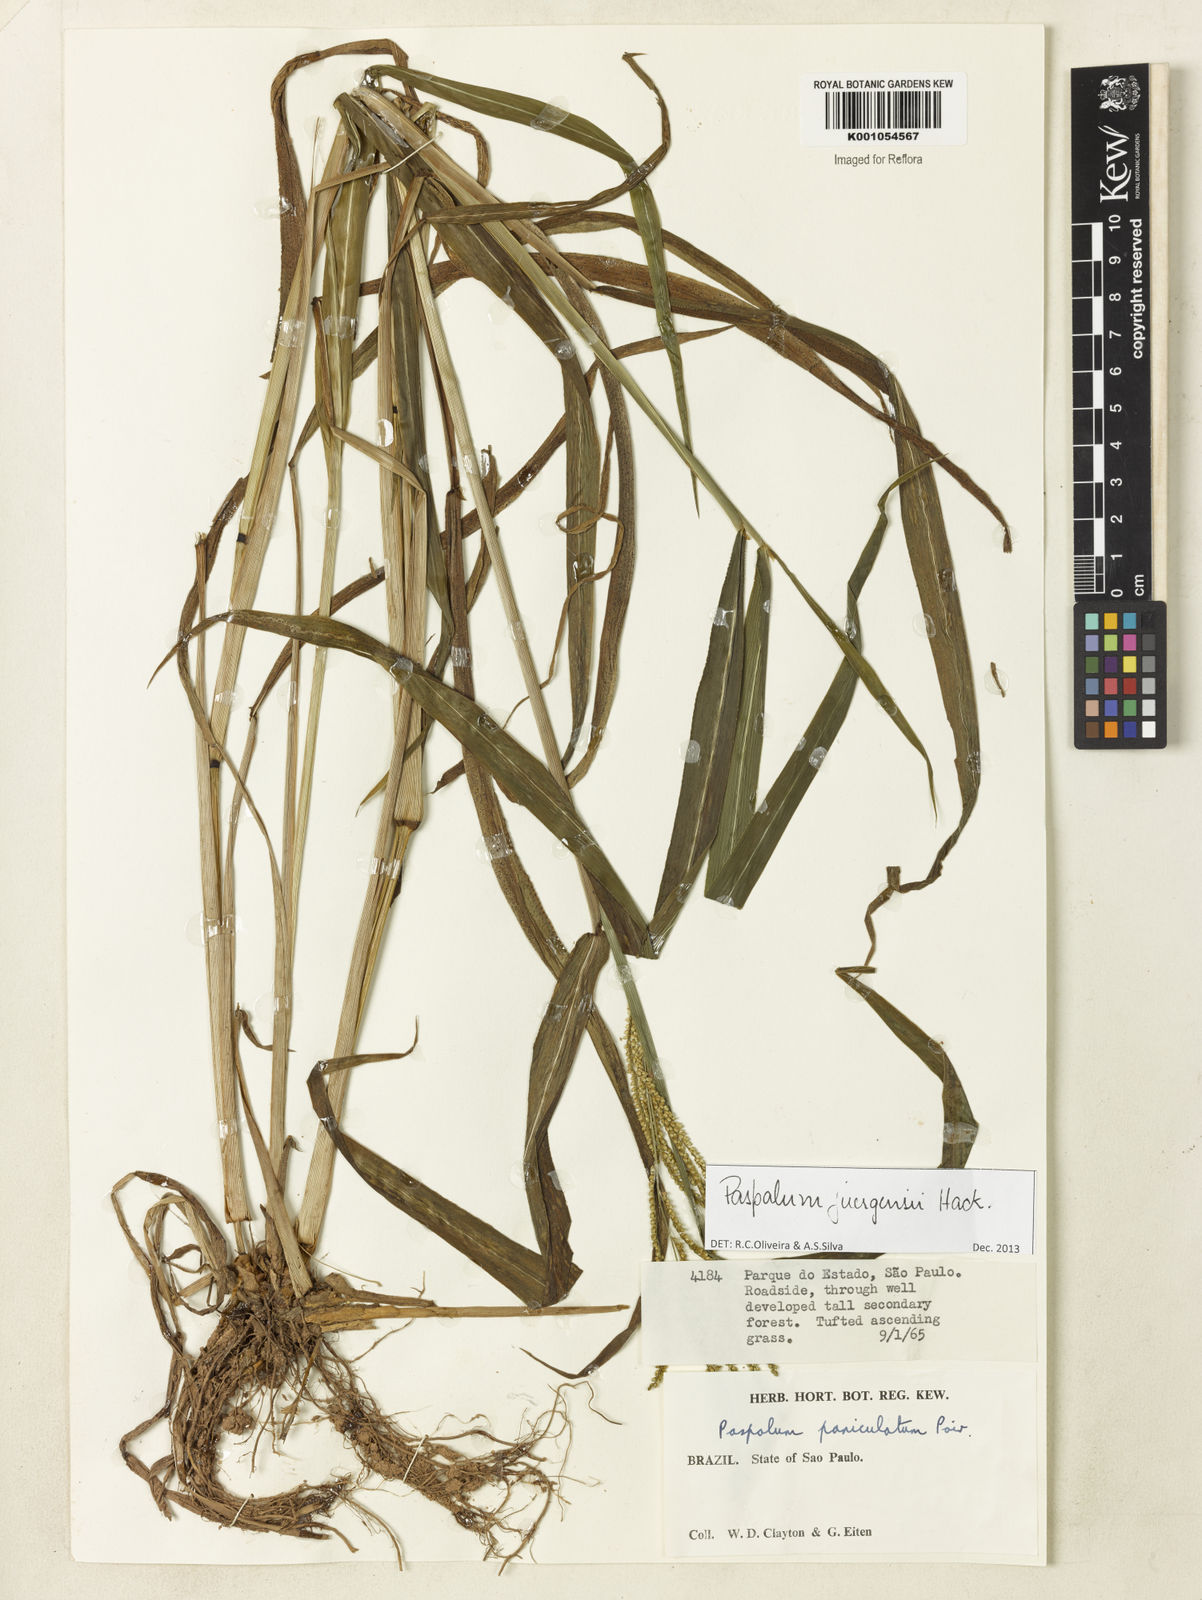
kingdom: Plantae
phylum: Tracheophyta
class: Liliopsida
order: Poales
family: Poaceae
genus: Paspalum
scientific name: Paspalum juergensii
